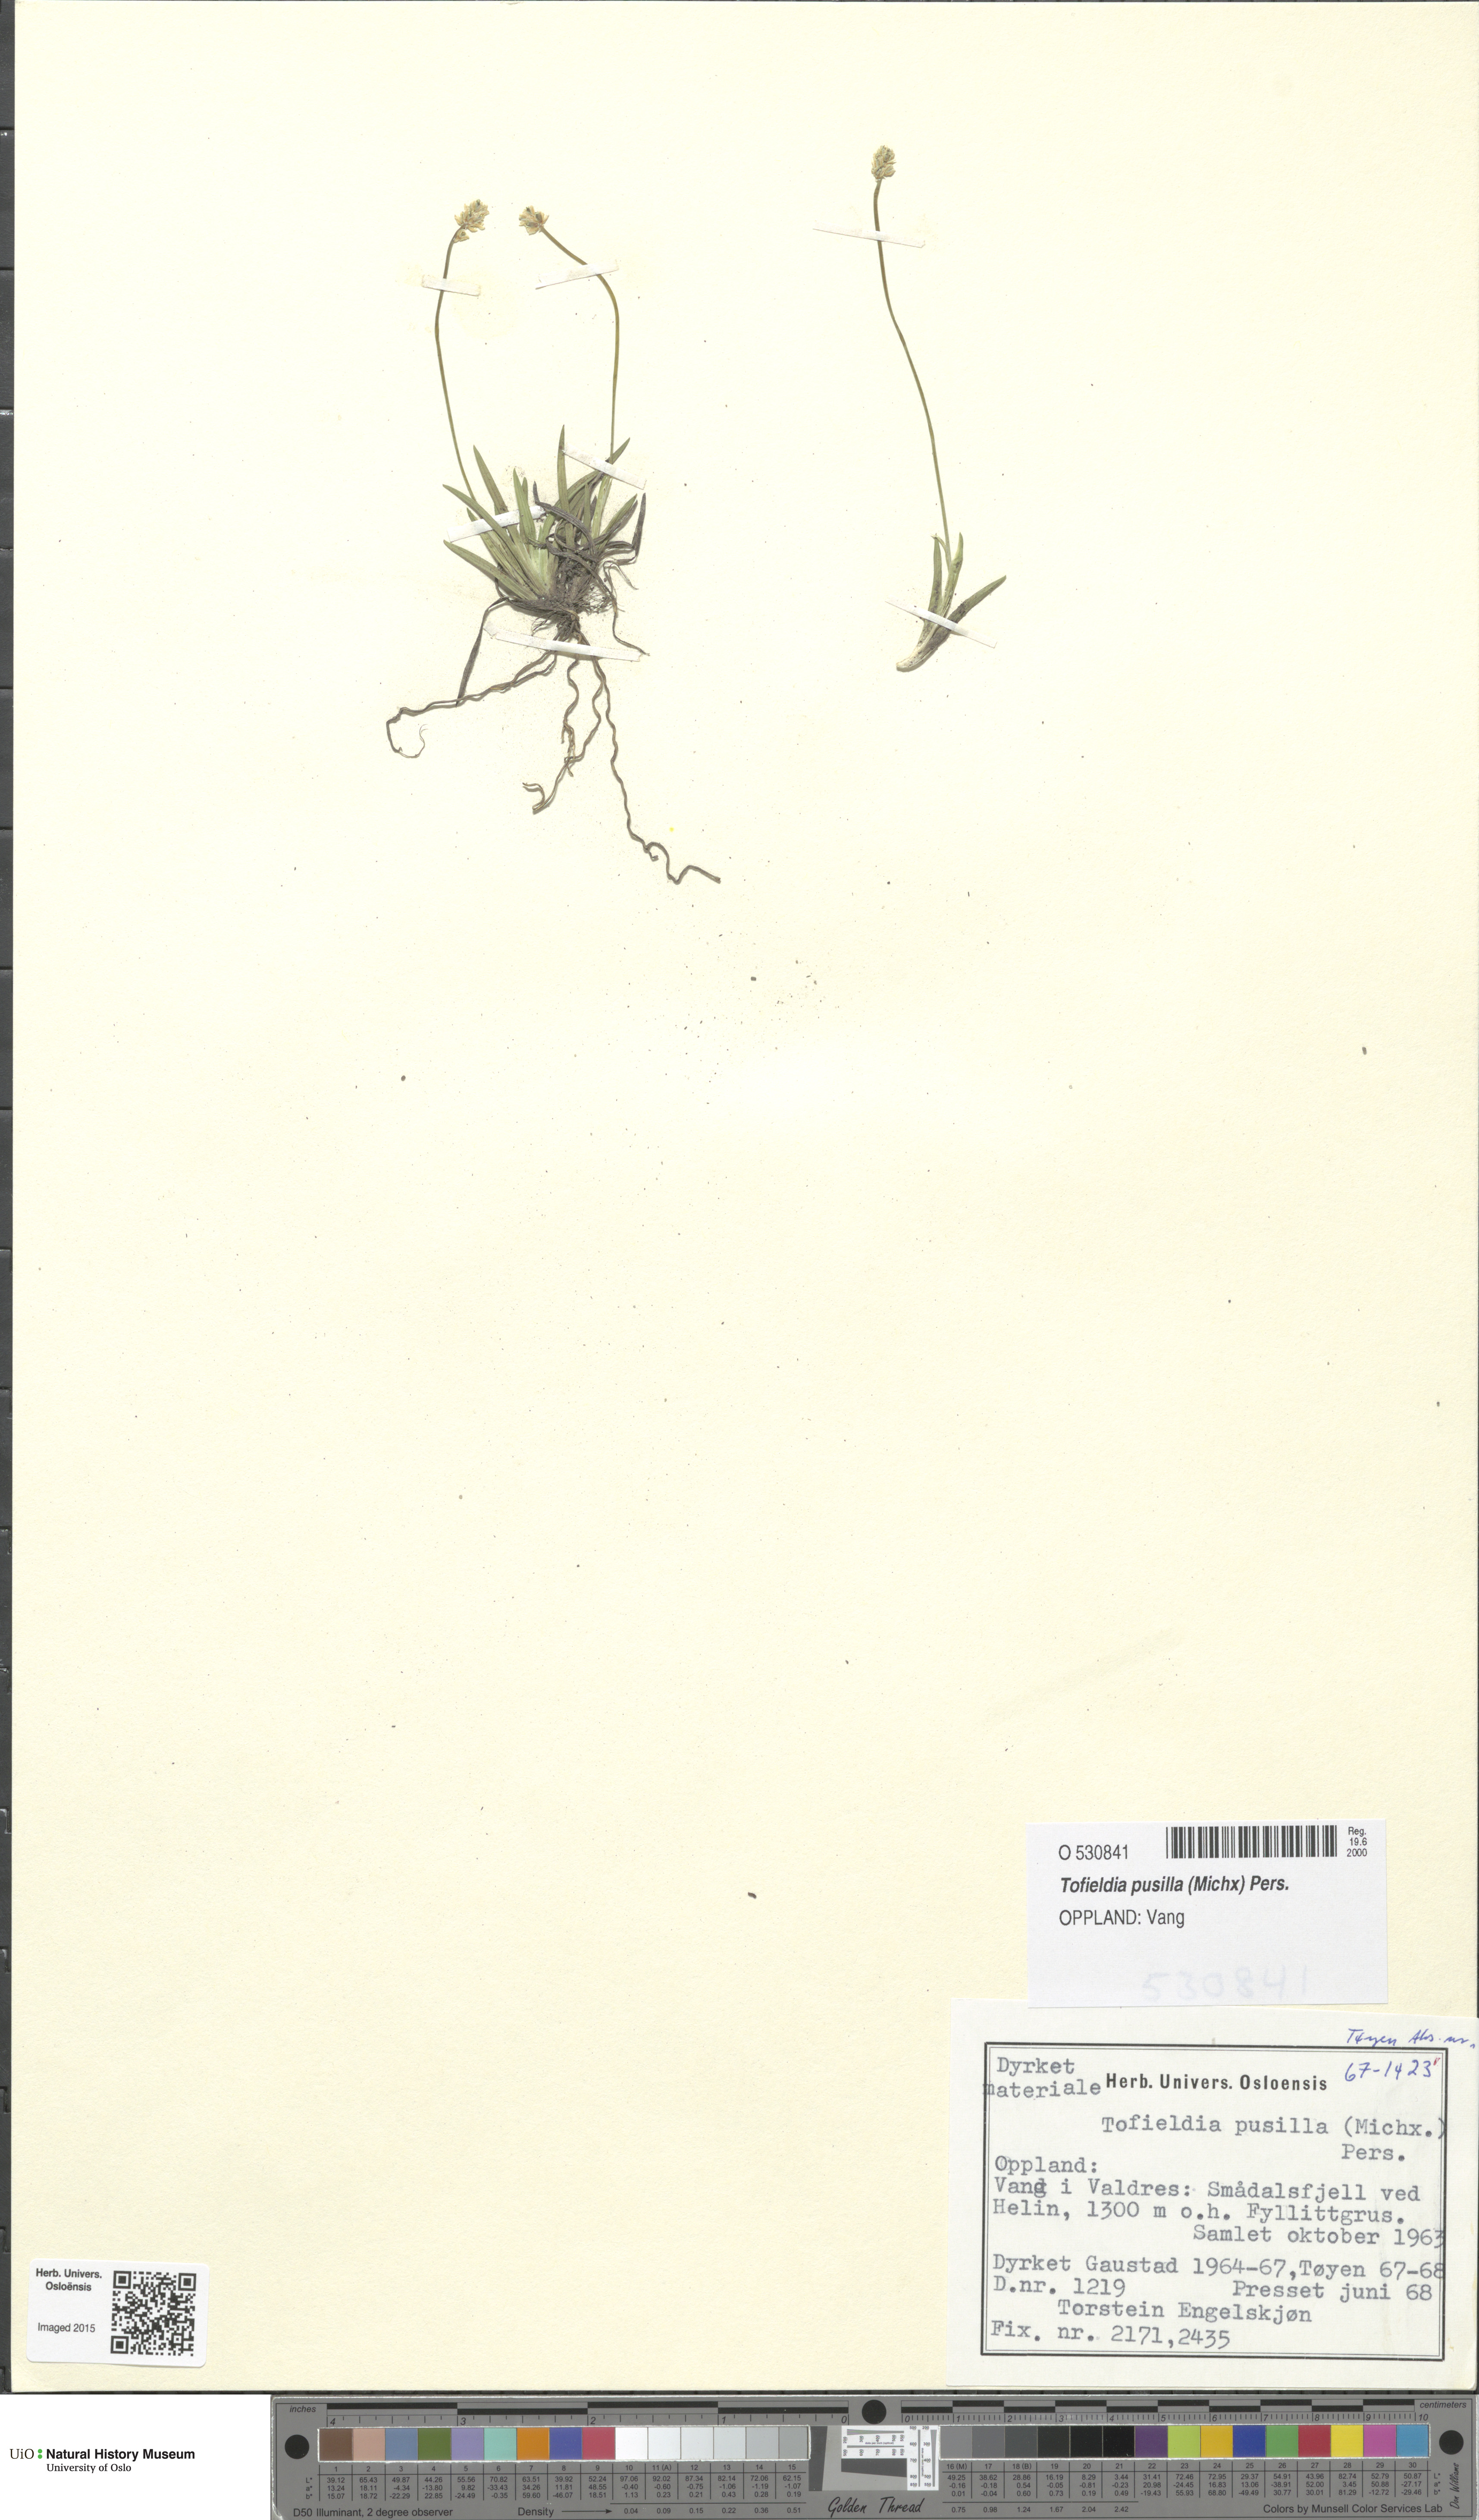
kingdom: Plantae
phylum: Tracheophyta
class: Liliopsida
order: Alismatales
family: Tofieldiaceae
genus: Tofieldia
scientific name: Tofieldia pusilla
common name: Scottish false asphodel
